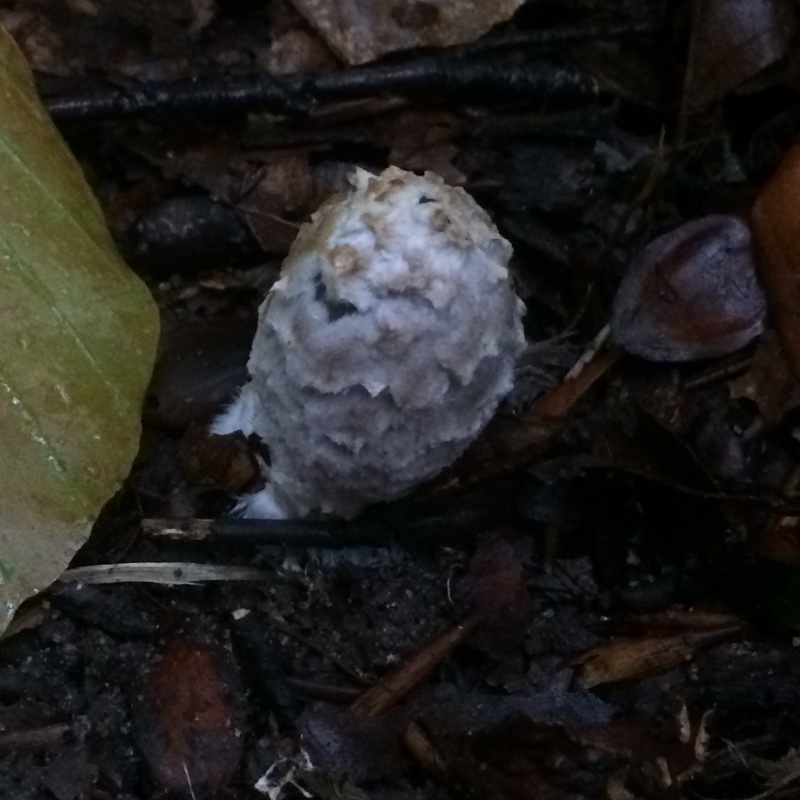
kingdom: Fungi
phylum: Basidiomycota
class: Agaricomycetes
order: Agaricales
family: Agaricaceae
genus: Coprinus
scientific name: Coprinus comatus
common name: stor parykhat
